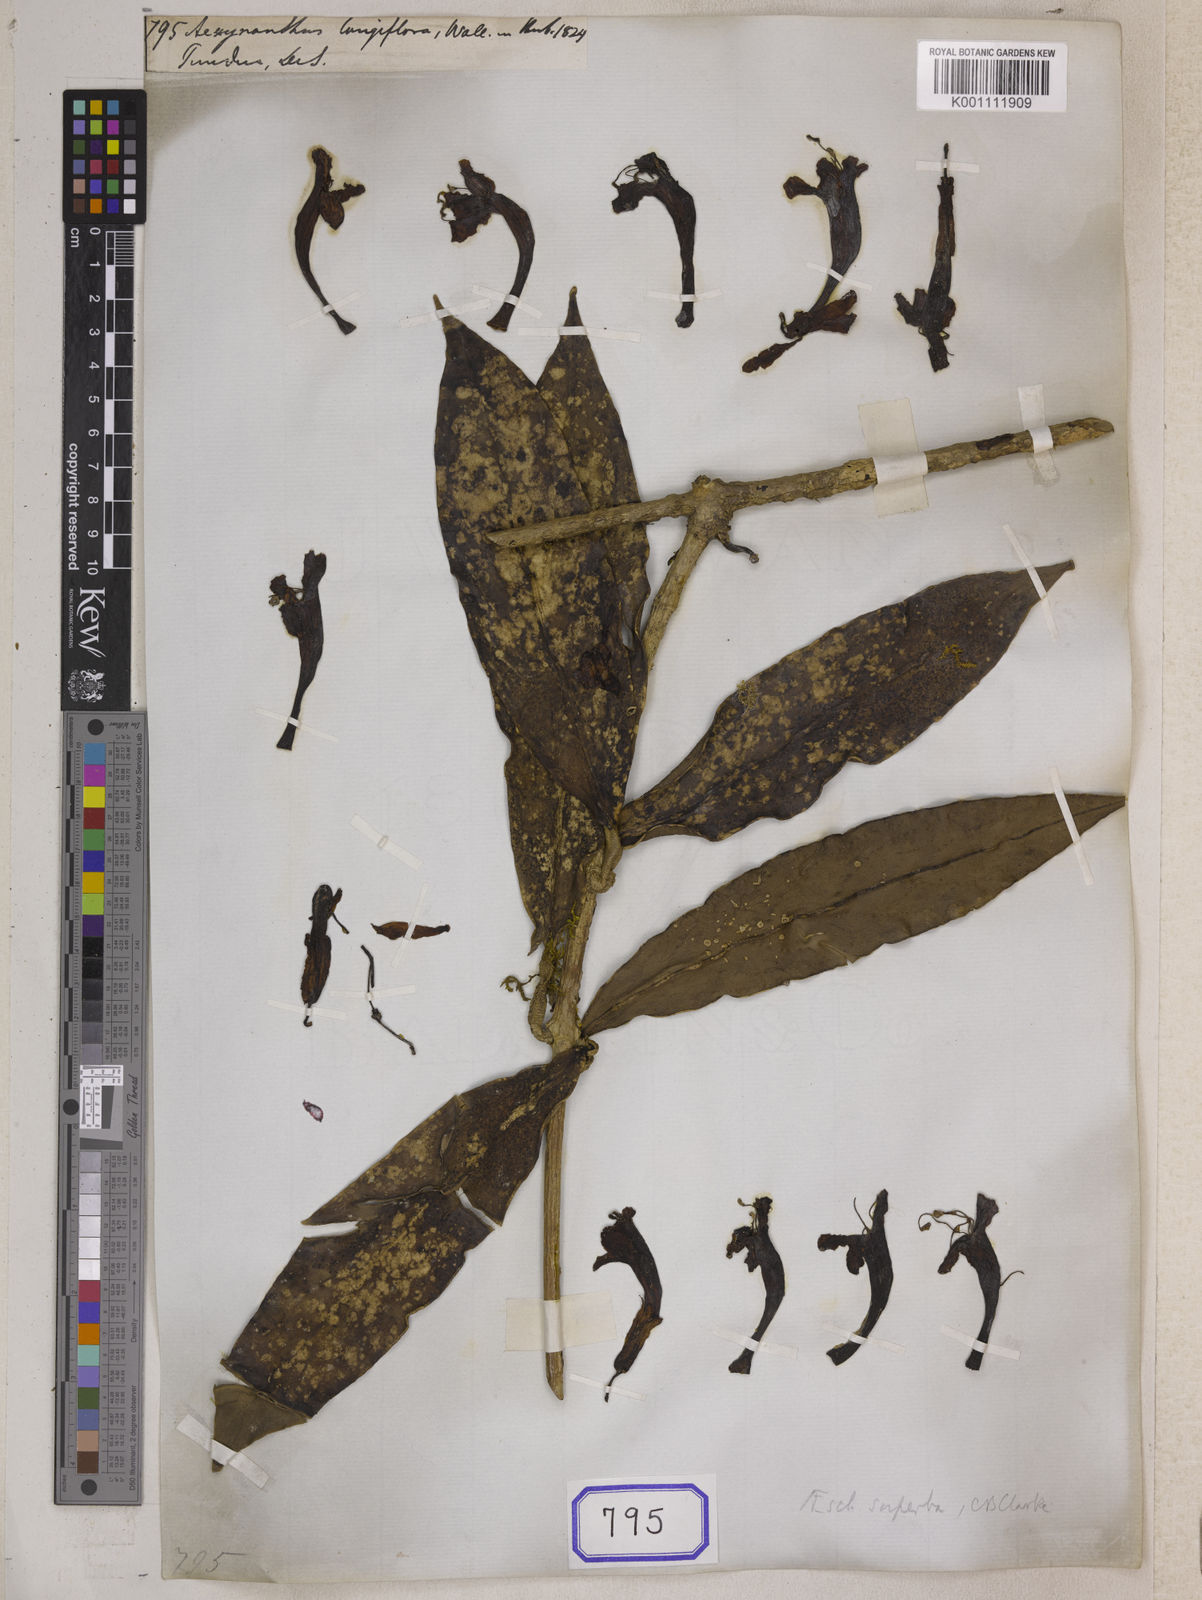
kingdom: Plantae
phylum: Tracheophyta
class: Magnoliopsida
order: Lamiales
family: Gesneriaceae
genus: Aeschynanthus
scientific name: Aeschynanthus
